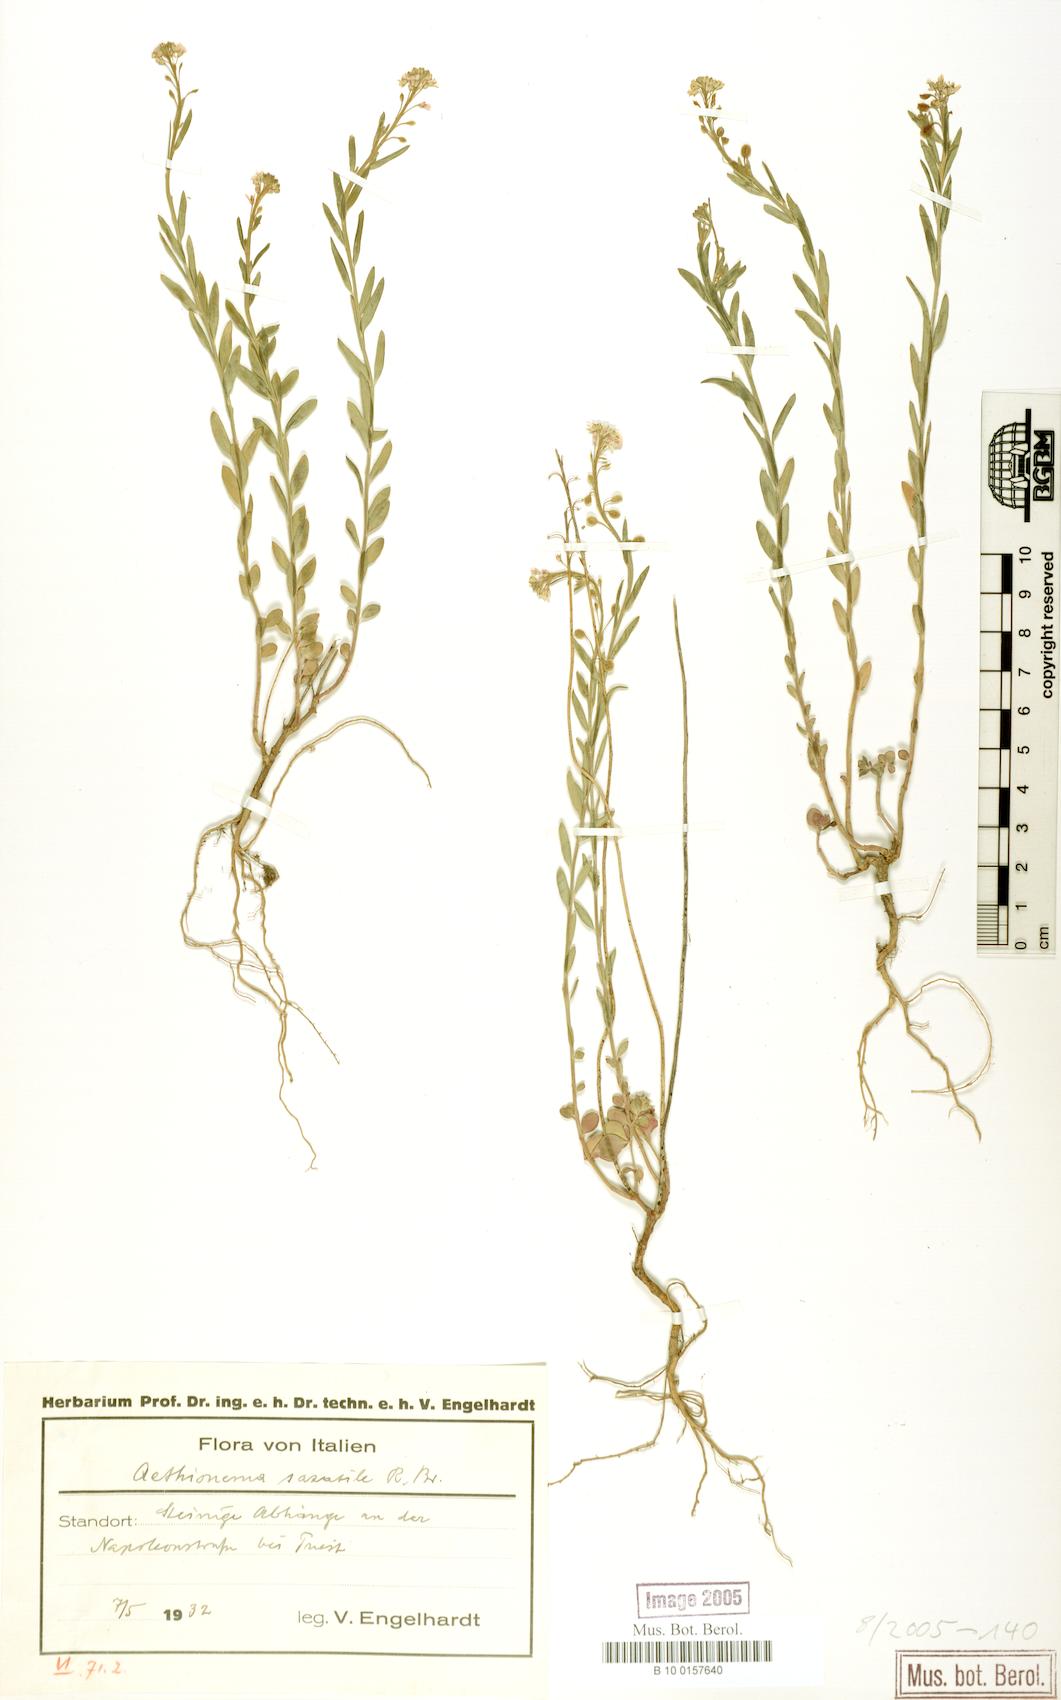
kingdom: Plantae
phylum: Tracheophyta
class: Magnoliopsida
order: Brassicales
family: Brassicaceae
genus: Aethionema
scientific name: Aethionema saxatile
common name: Burnt candytuft
